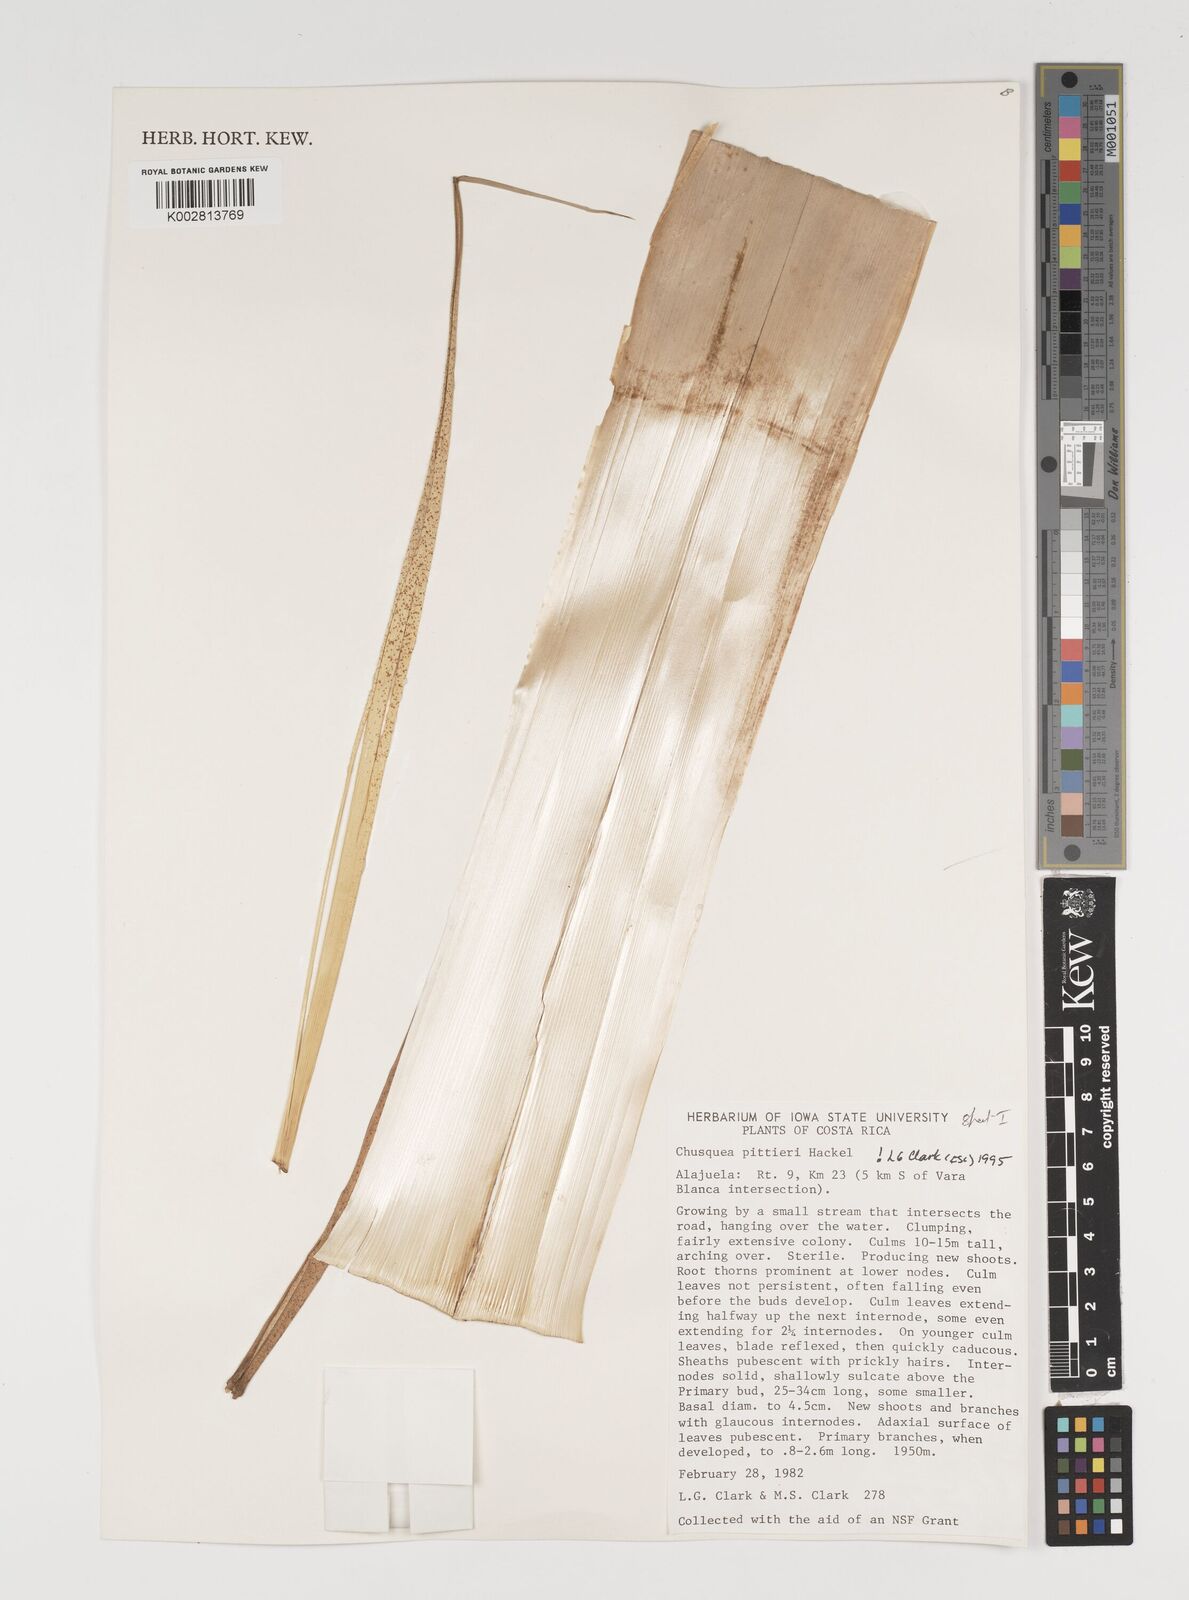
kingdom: Plantae
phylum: Tracheophyta
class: Liliopsida
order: Poales
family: Poaceae
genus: Chusquea
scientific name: Chusquea pittieri
